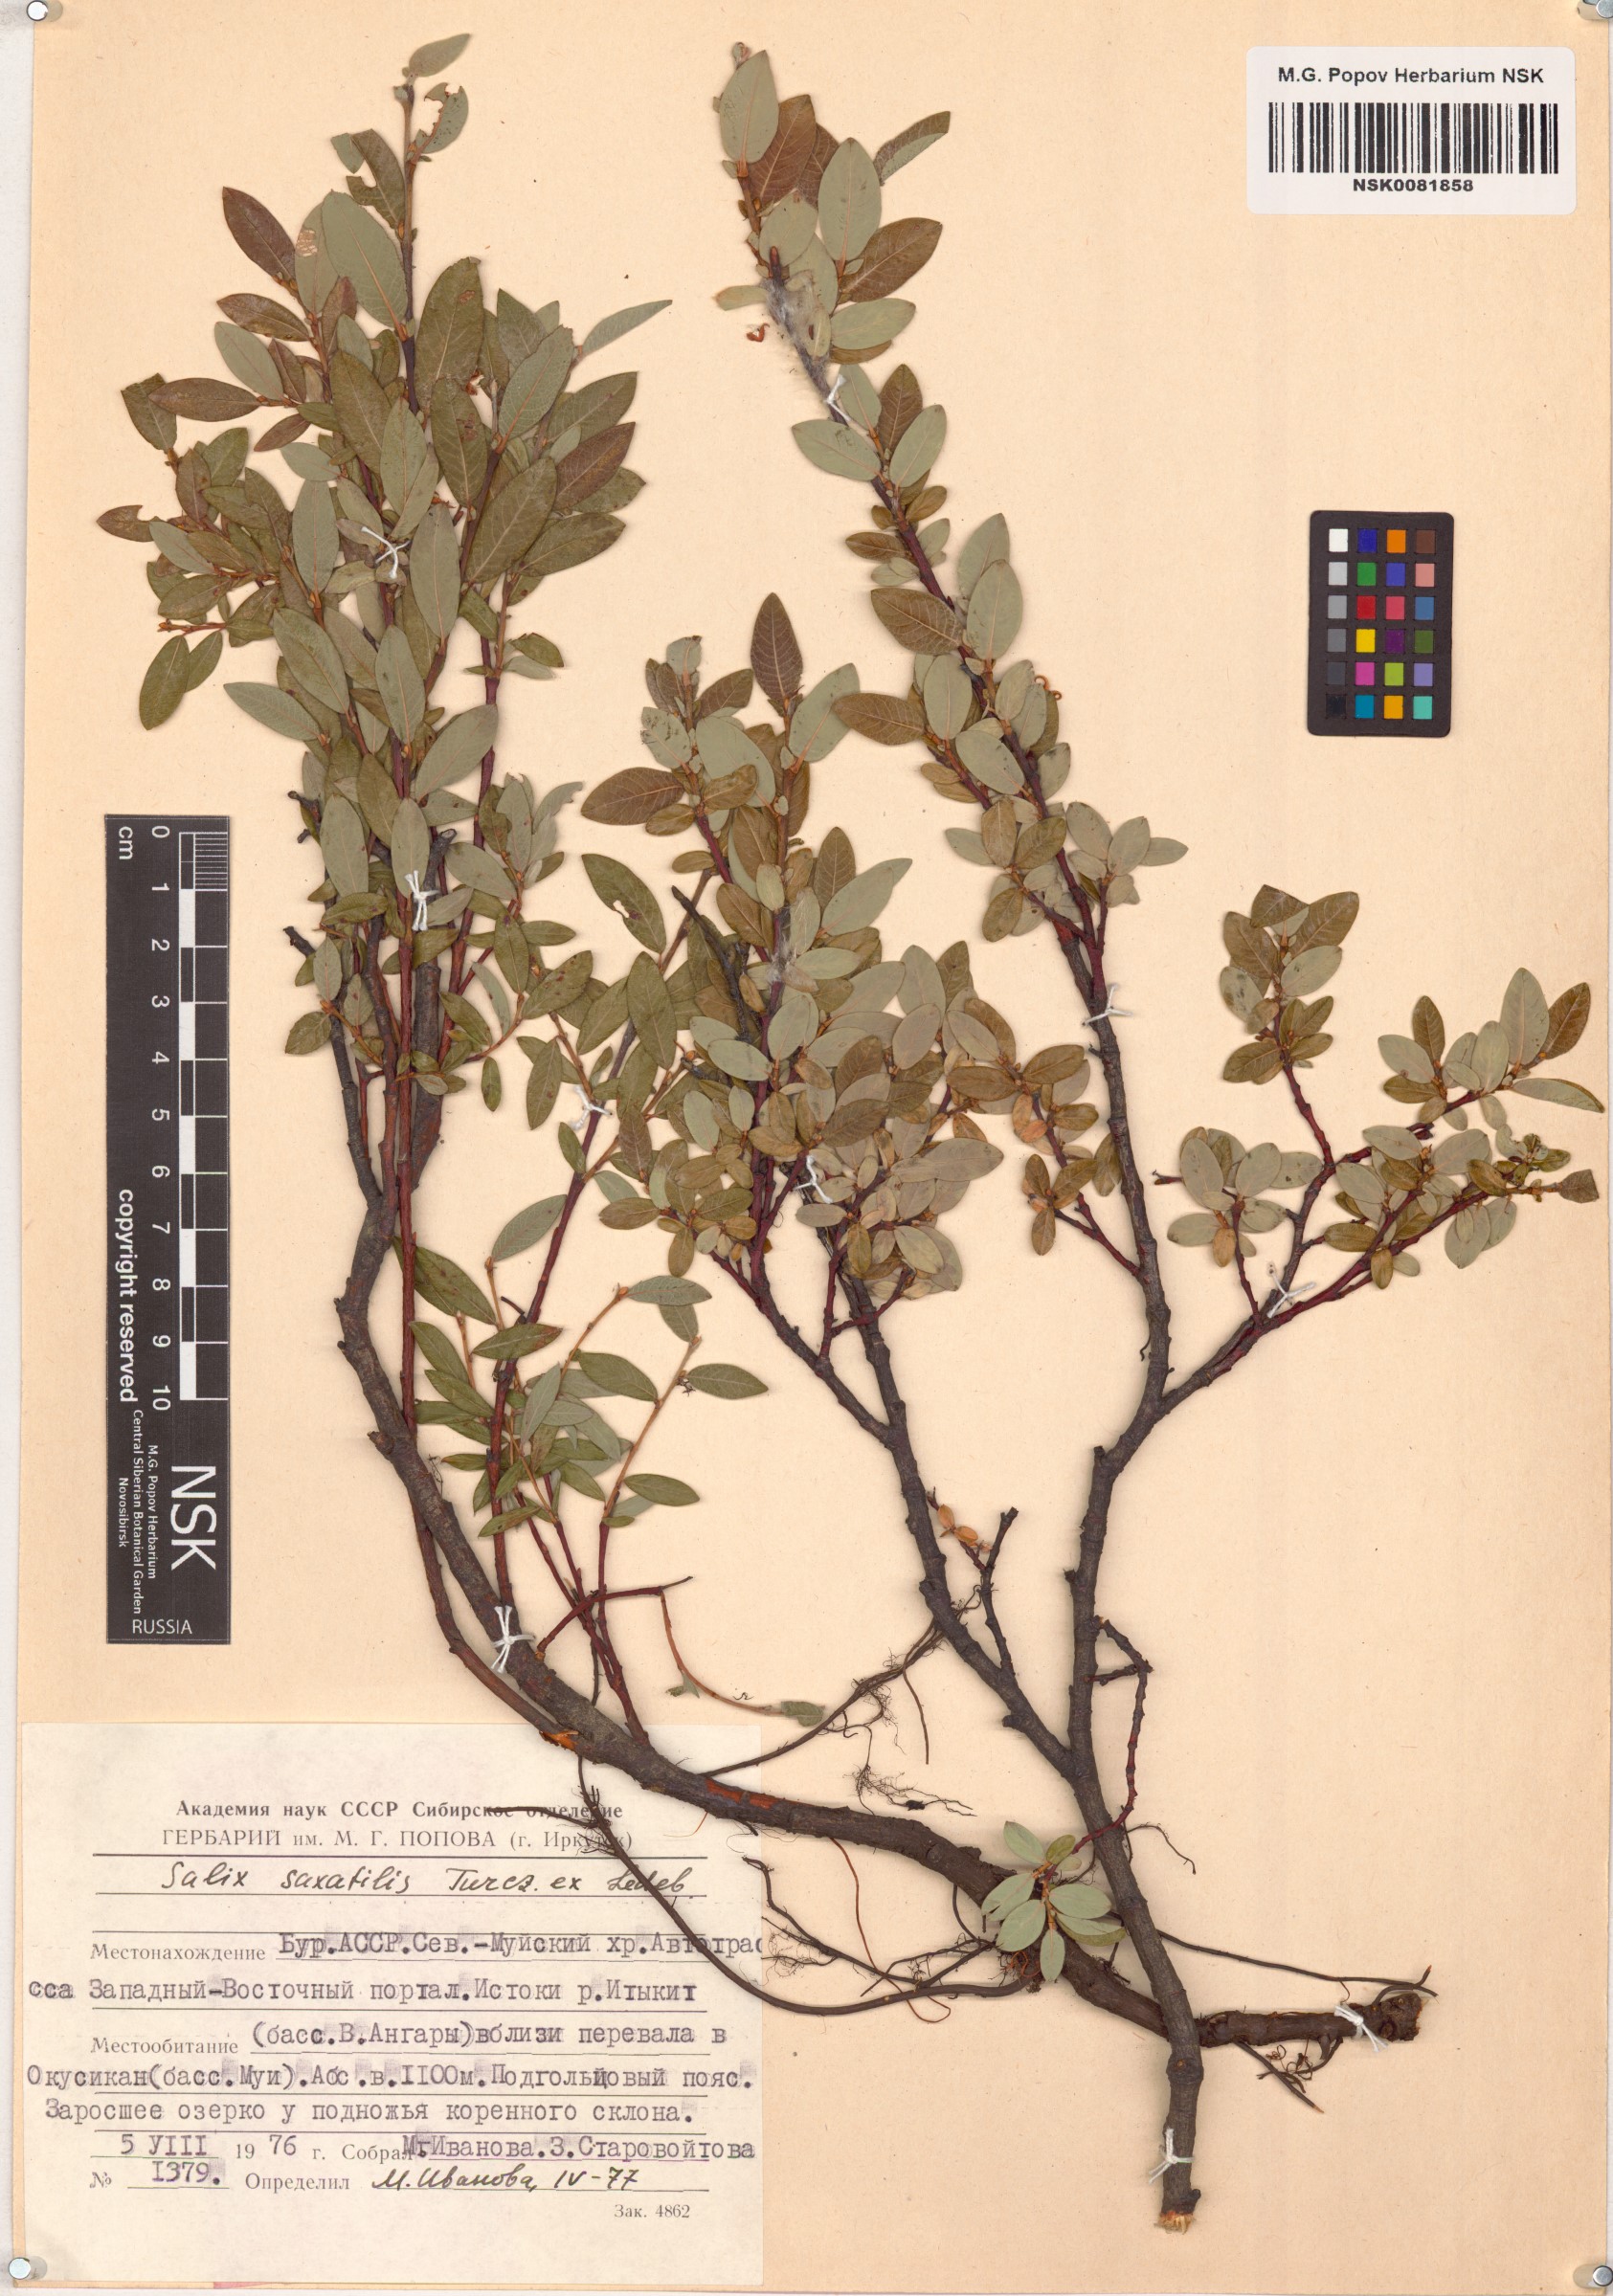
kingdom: Plantae
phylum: Tracheophyta
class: Magnoliopsida
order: Malpighiales
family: Salicaceae
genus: Salix
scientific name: Salix saxatilis
